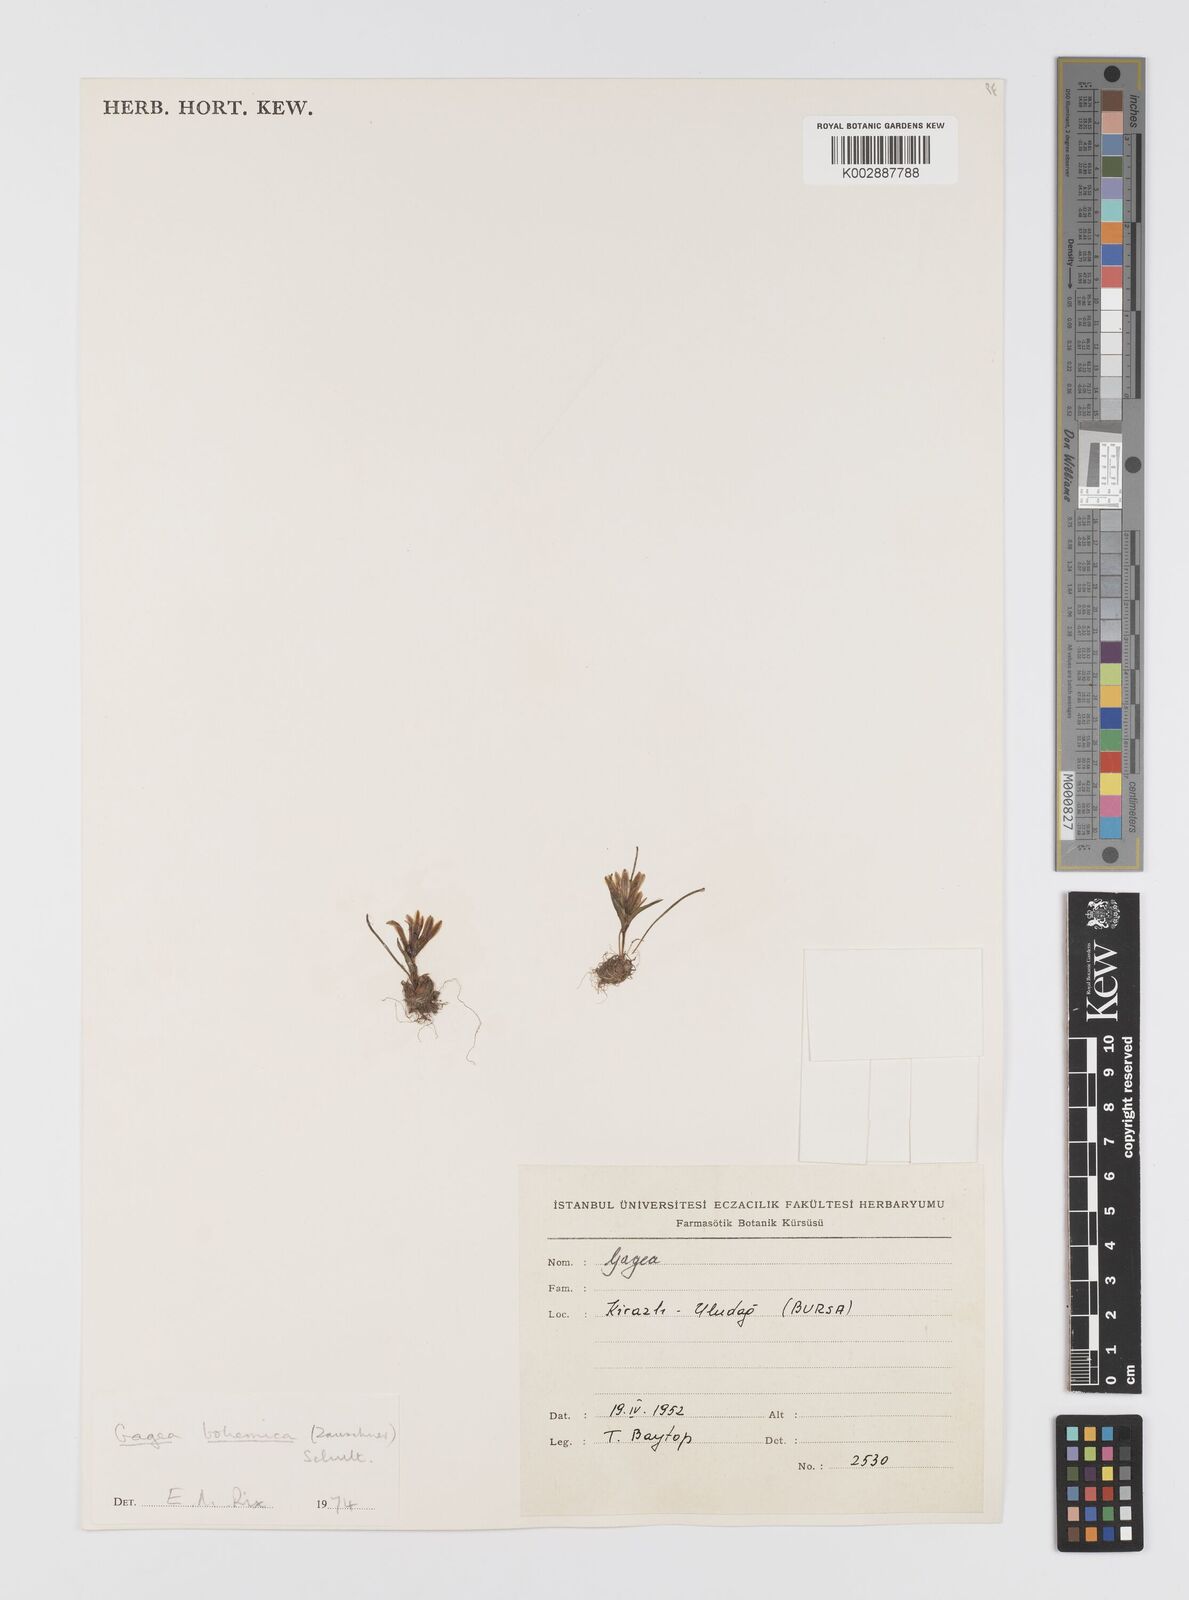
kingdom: Plantae
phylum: Tracheophyta
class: Liliopsida
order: Liliales
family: Liliaceae
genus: Gagea
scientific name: Gagea bohemica
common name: Early star-of-bethlehem
